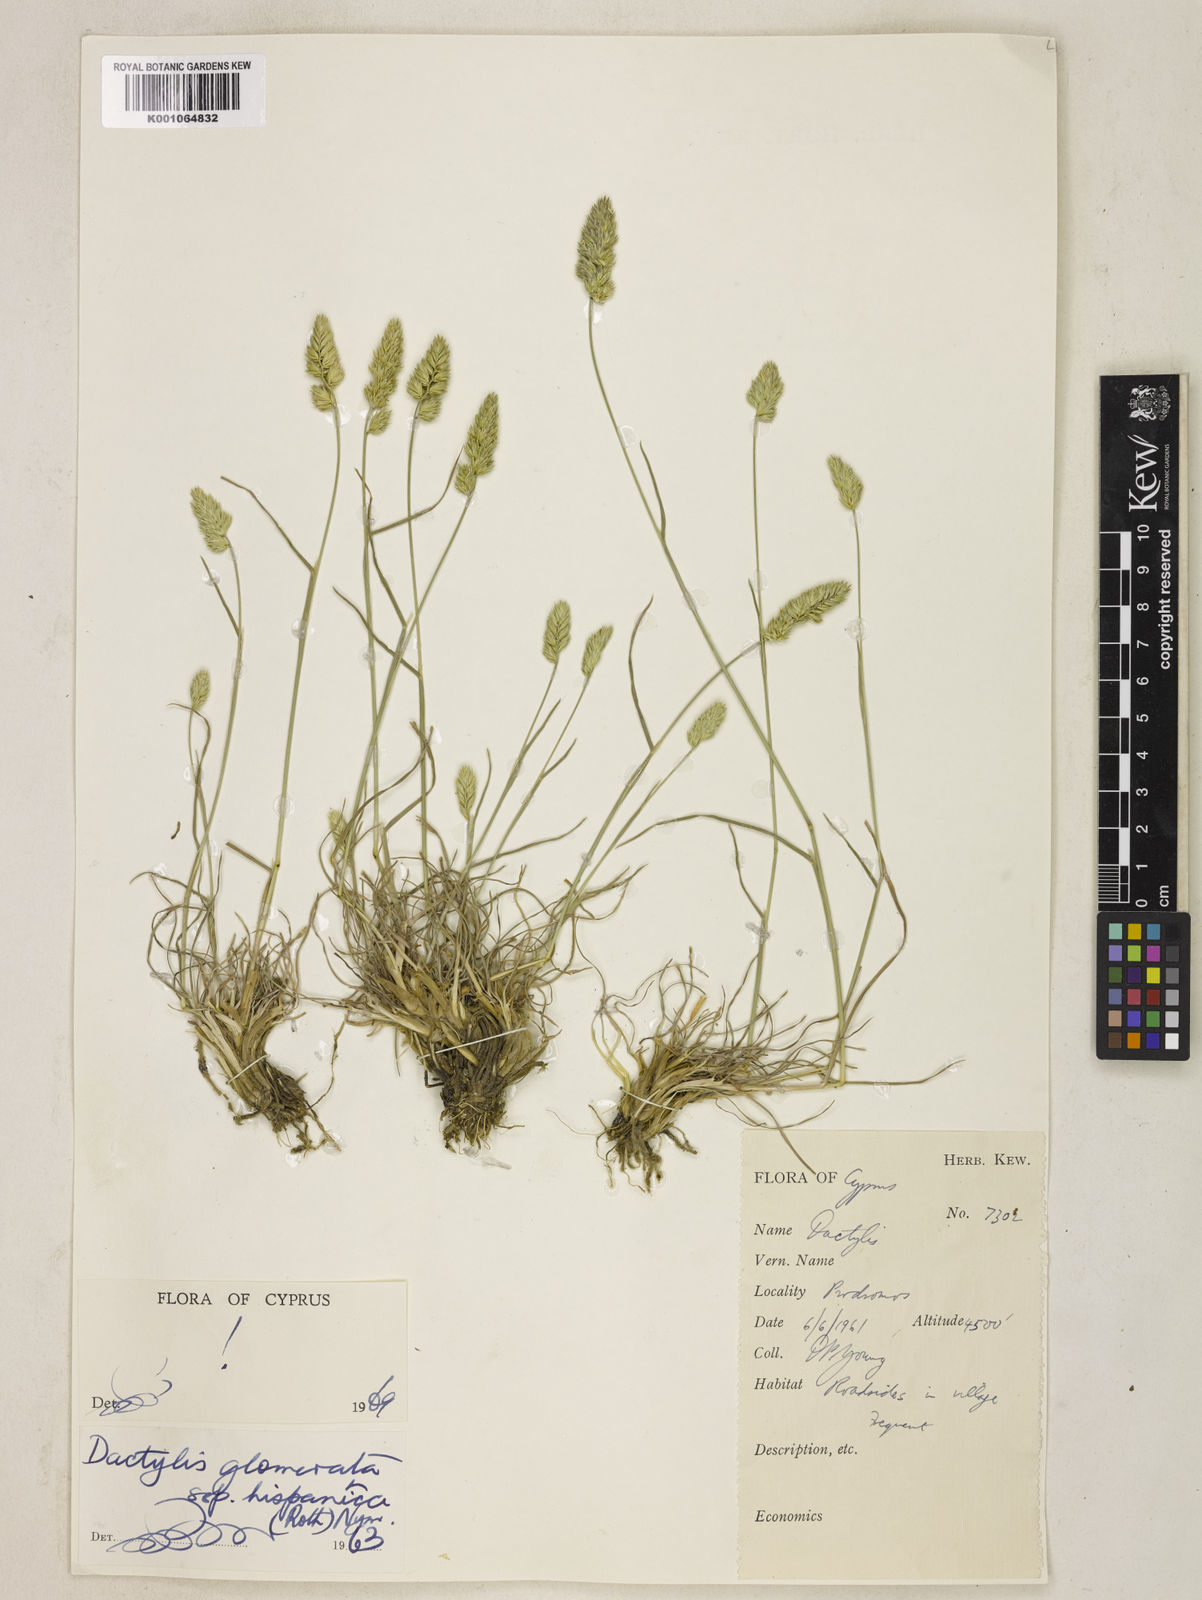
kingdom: Plantae
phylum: Tracheophyta
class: Liliopsida
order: Poales
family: Poaceae
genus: Dactylis
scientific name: Dactylis glomerata
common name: Orchardgrass
